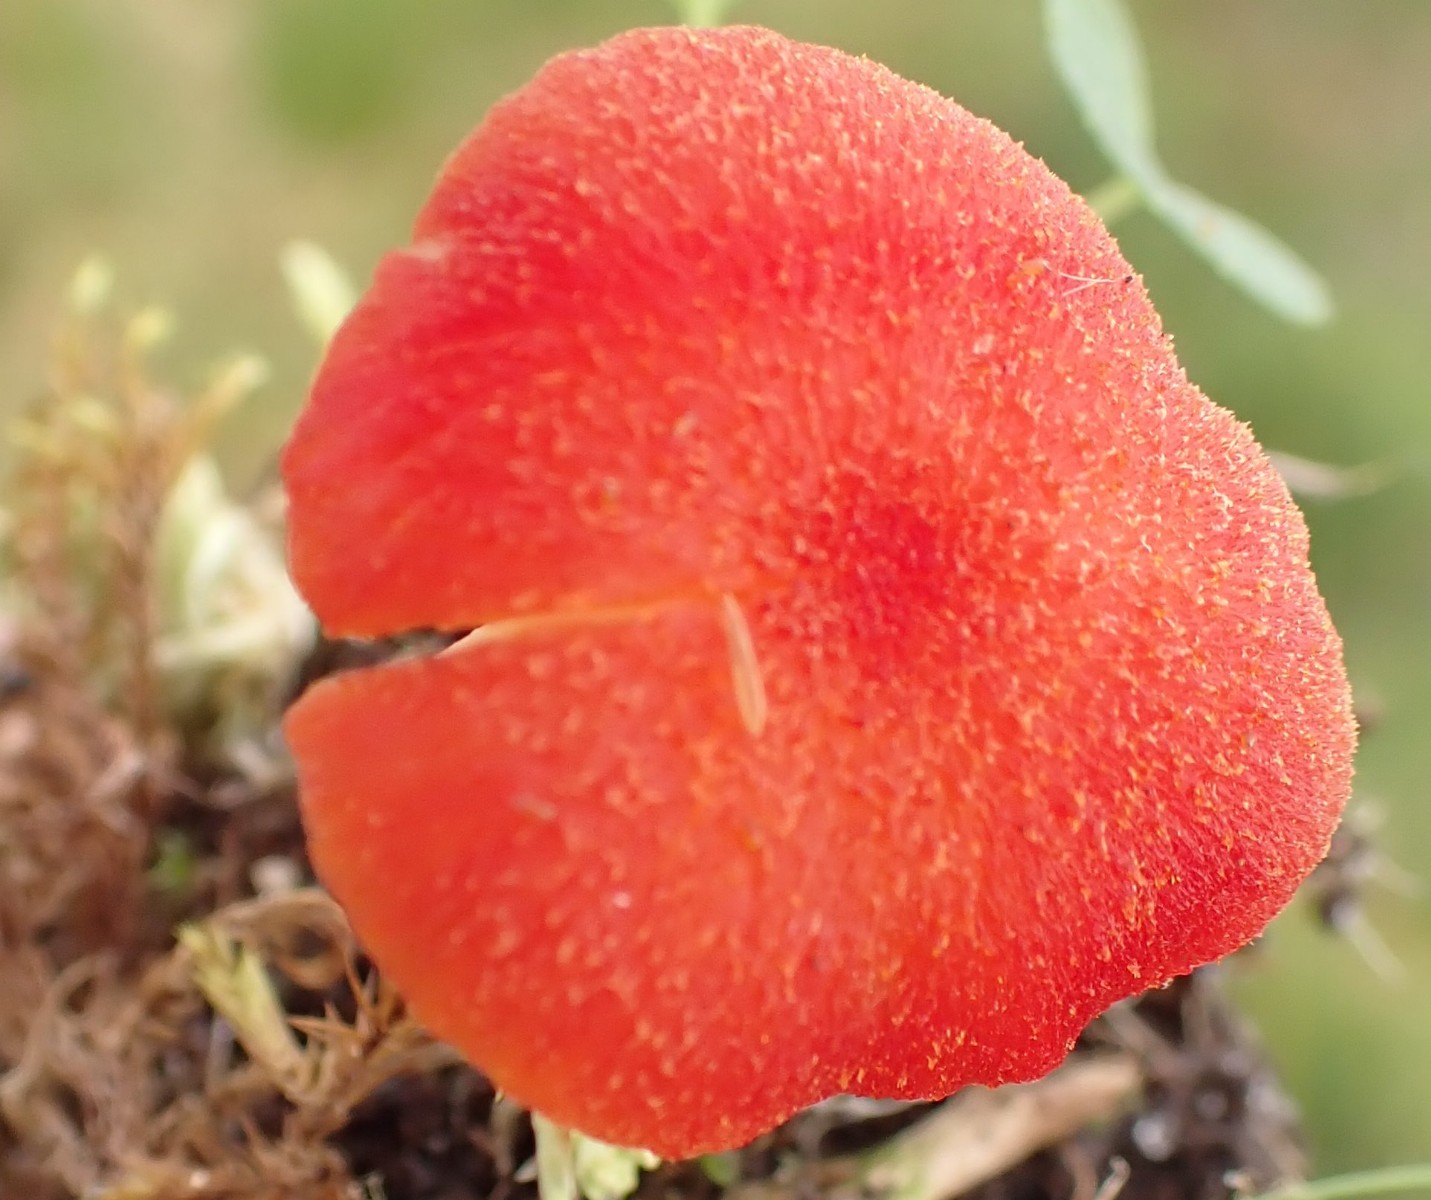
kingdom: Fungi
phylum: Basidiomycota
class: Agaricomycetes
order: Agaricales
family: Hygrophoraceae
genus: Hygrocybe
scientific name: Hygrocybe helobia
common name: hvidløgs-vokshat
